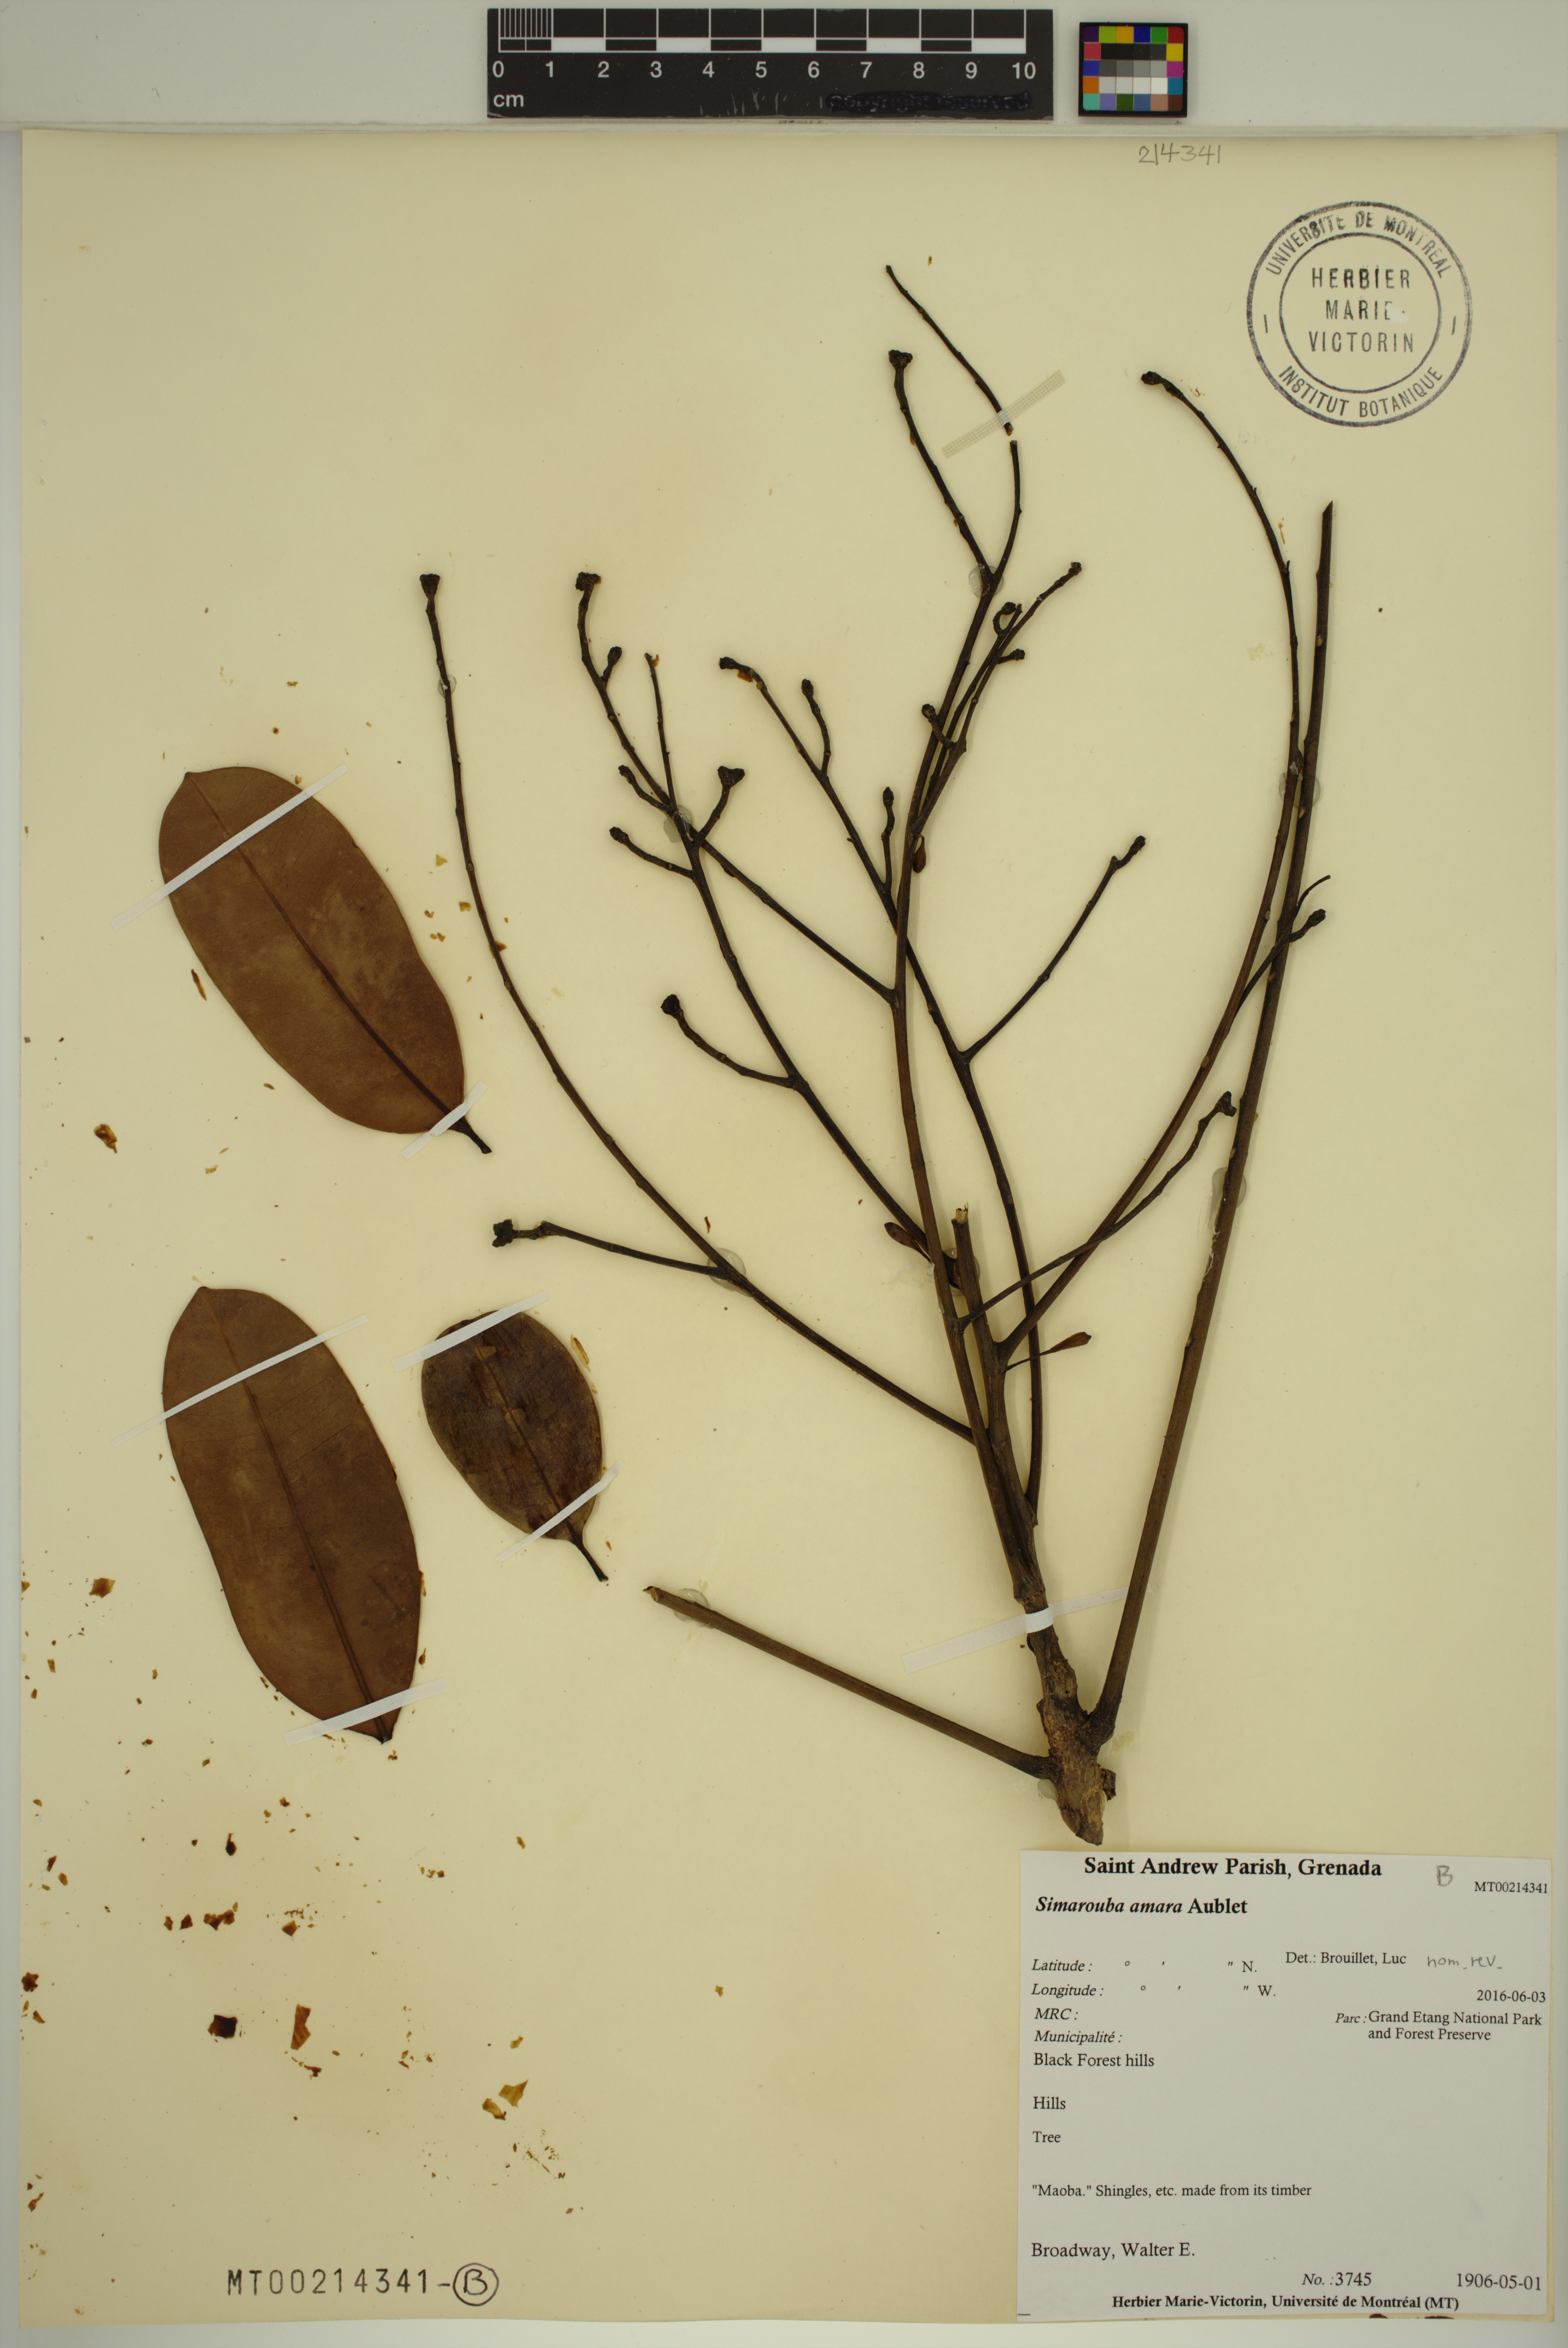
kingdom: Plantae
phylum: Tracheophyta
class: Magnoliopsida
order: Sapindales
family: Simaroubaceae
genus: Simarouba
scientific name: Simarouba amara
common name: Bitterwood
